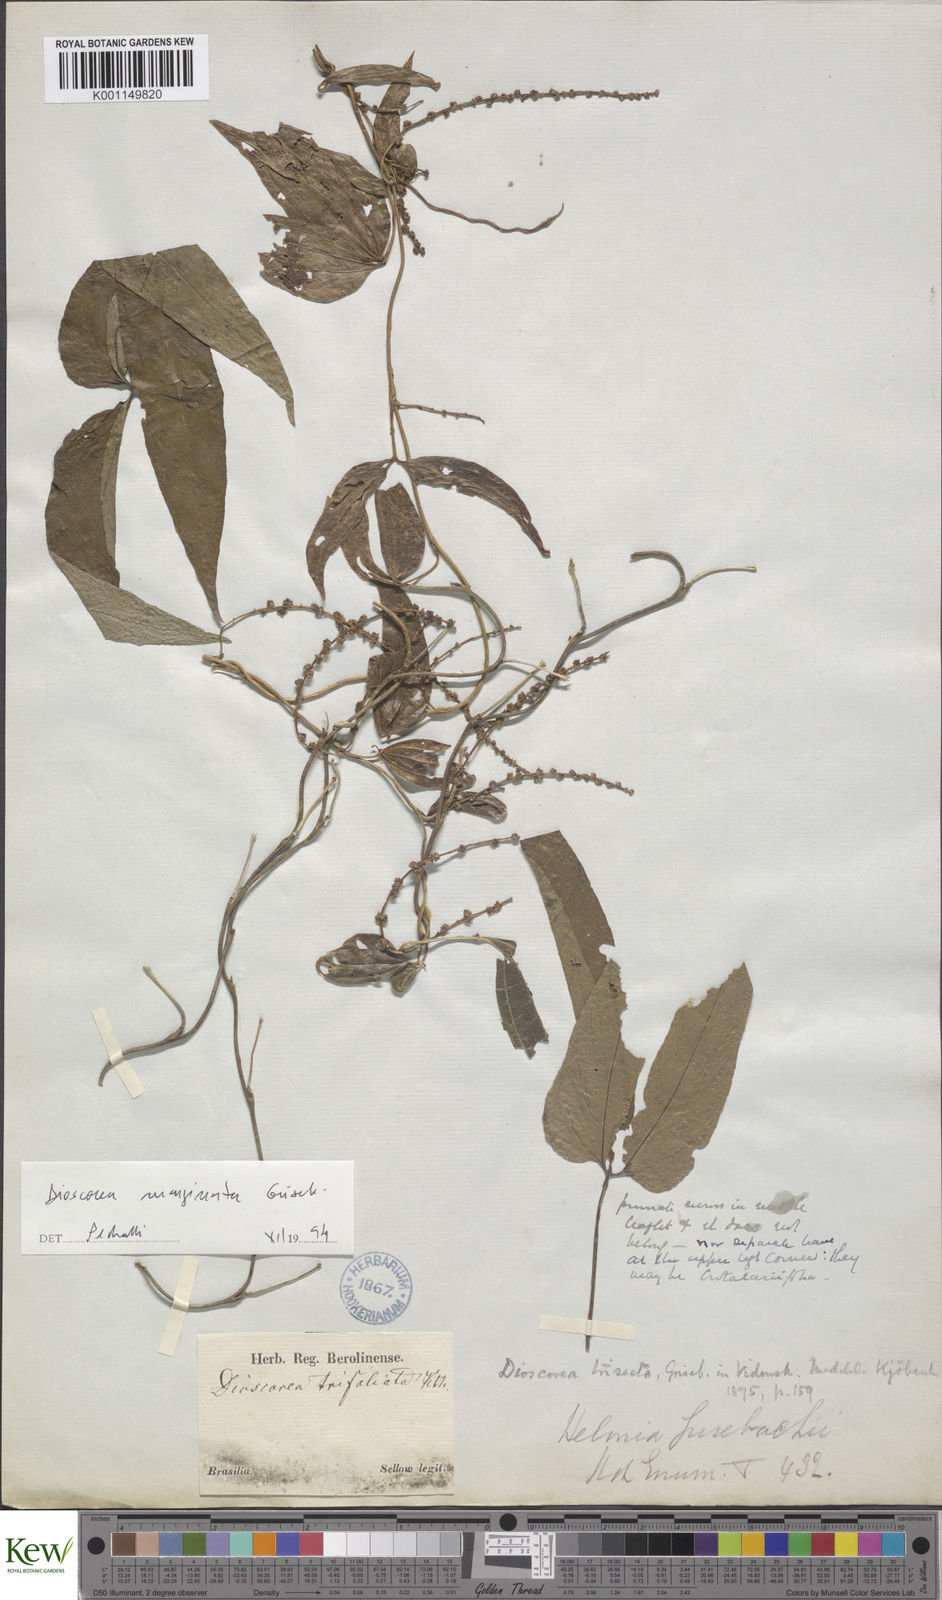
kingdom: Plantae
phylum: Tracheophyta
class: Liliopsida
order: Dioscoreales
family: Dioscoreaceae
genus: Dioscorea
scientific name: Dioscorea trisecta
